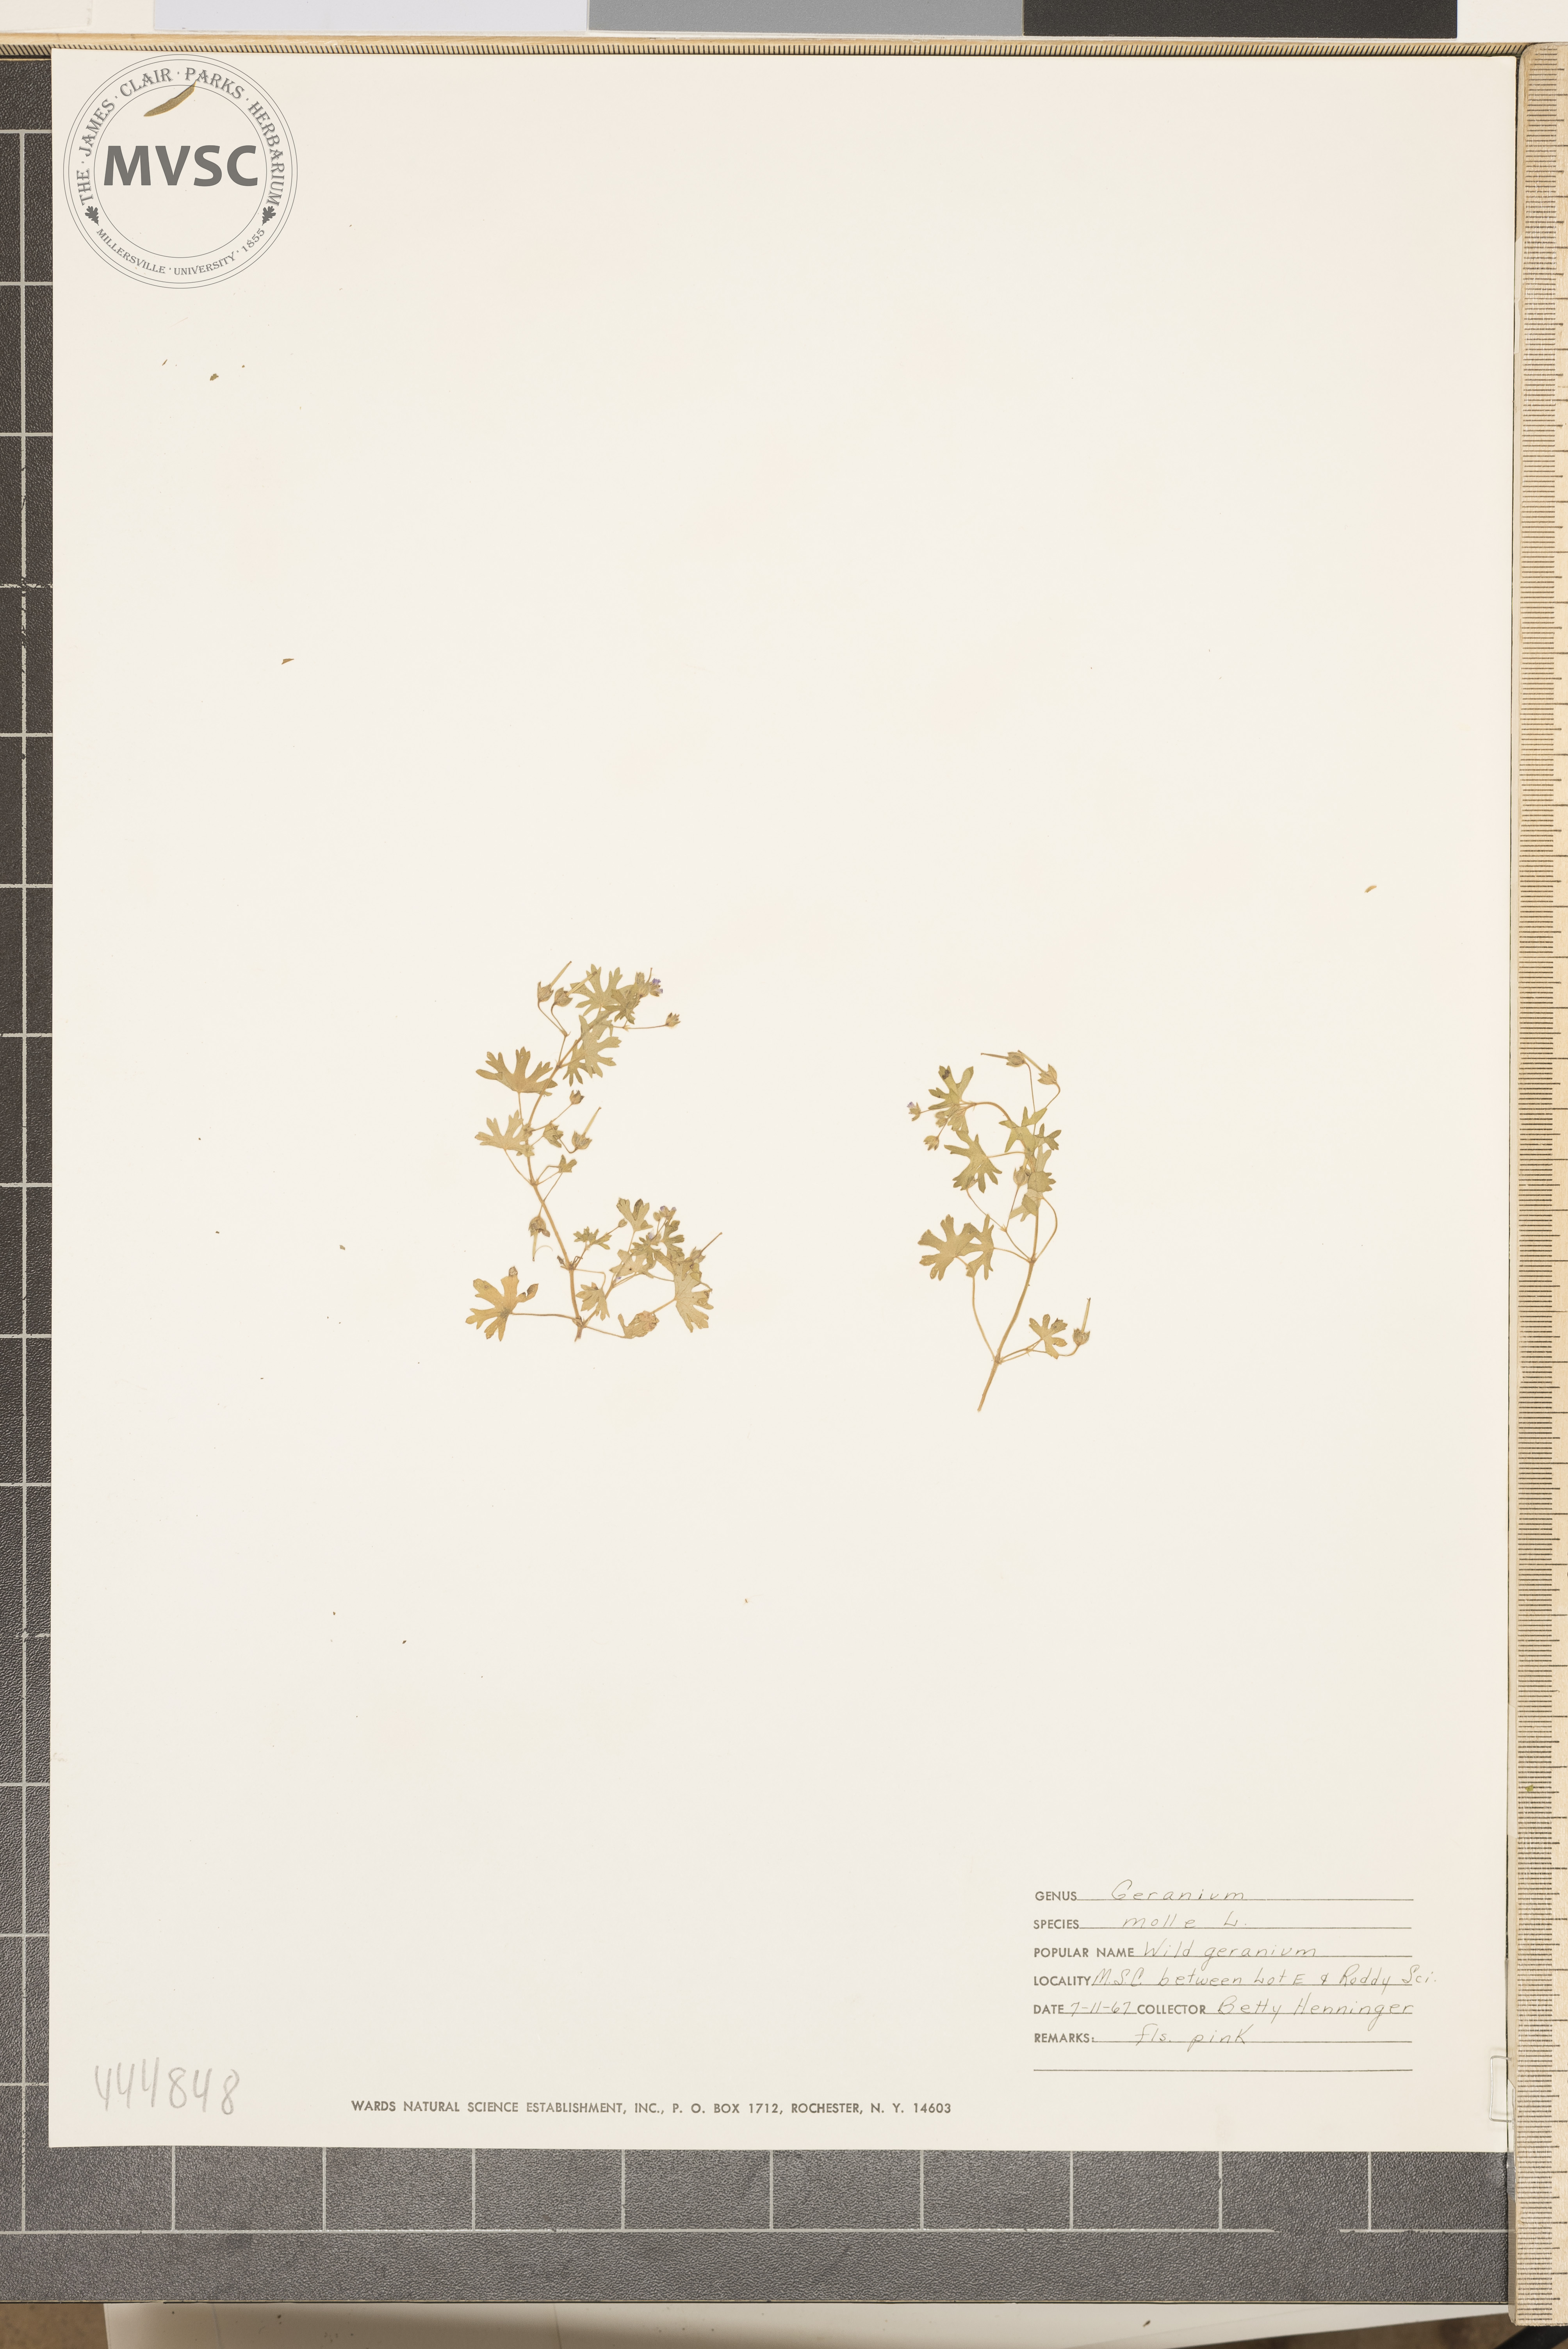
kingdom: Plantae
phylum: Tracheophyta
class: Magnoliopsida
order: Geraniales
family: Geraniaceae
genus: Geranium
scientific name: Geranium molle
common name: Dove's-foot crane's-bill
